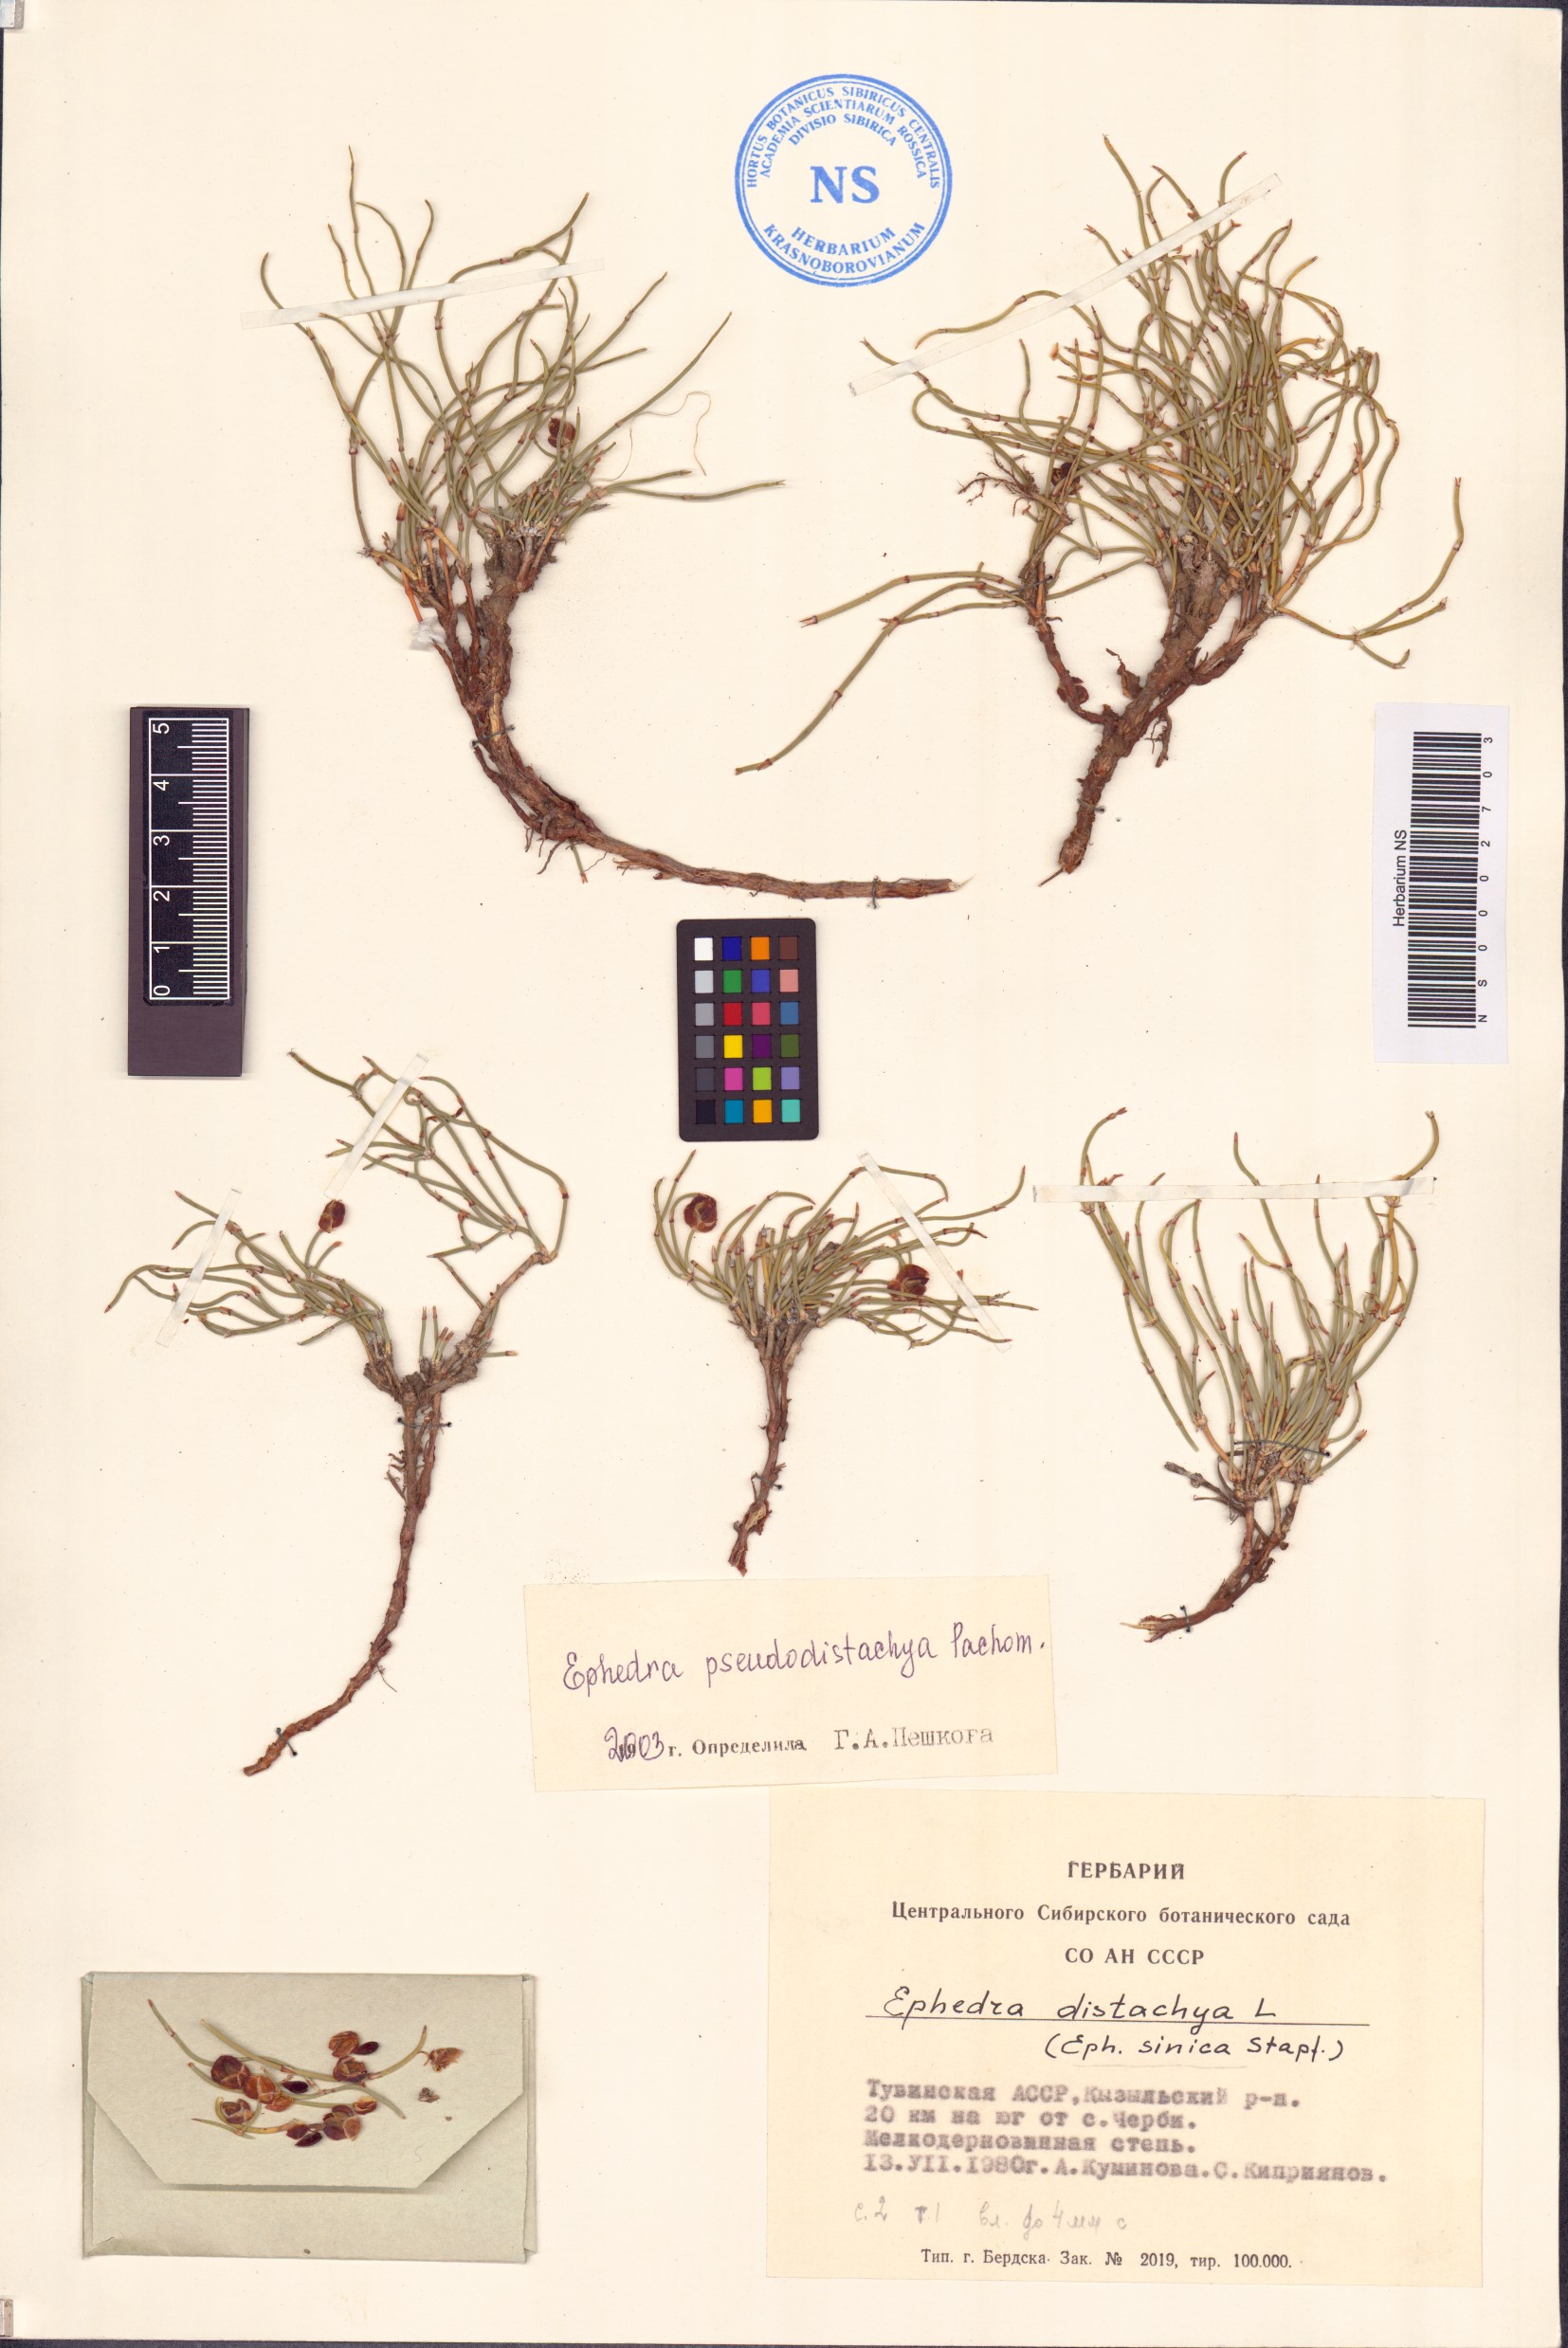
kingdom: Plantae
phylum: Tracheophyta
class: Gnetopsida
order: Ephedrales
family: Ephedraceae
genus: Ephedra
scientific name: Ephedra pseudodistachya
